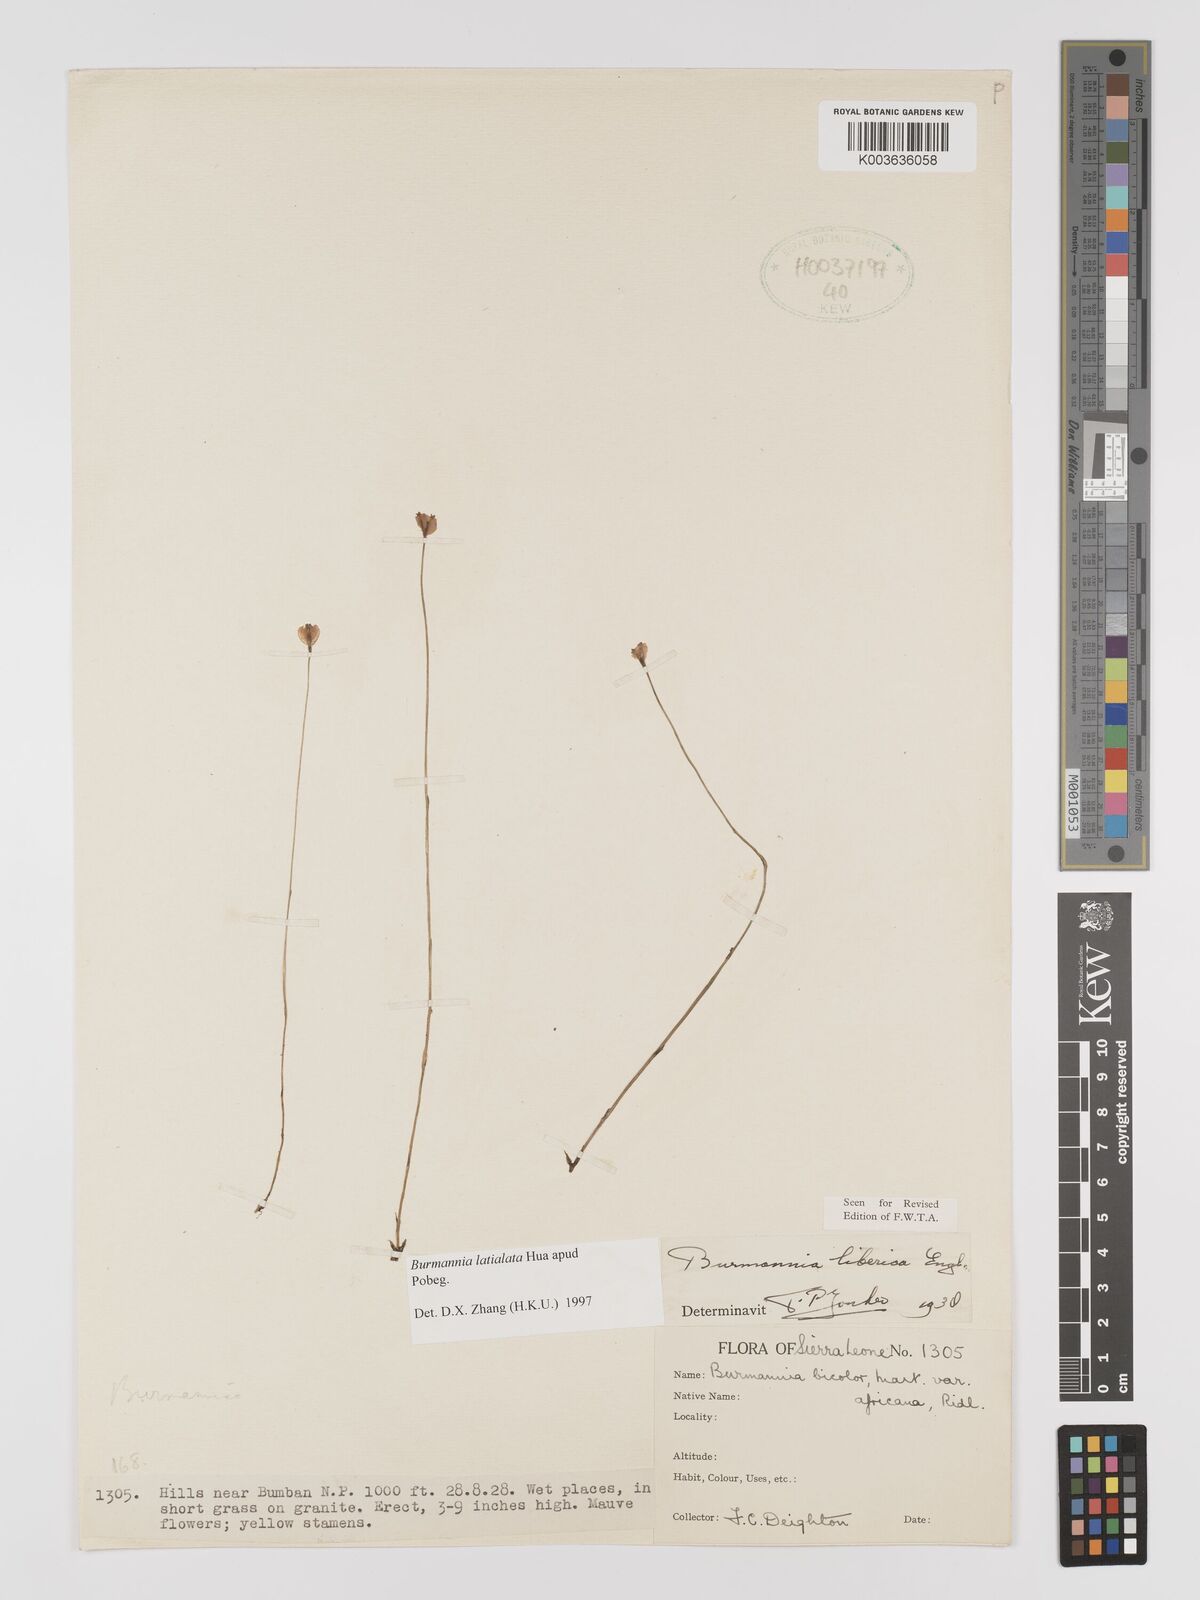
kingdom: Plantae
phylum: Tracheophyta
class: Liliopsida
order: Dioscoreales
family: Burmanniaceae
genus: Burmannia
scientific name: Burmannia madagascariensis
